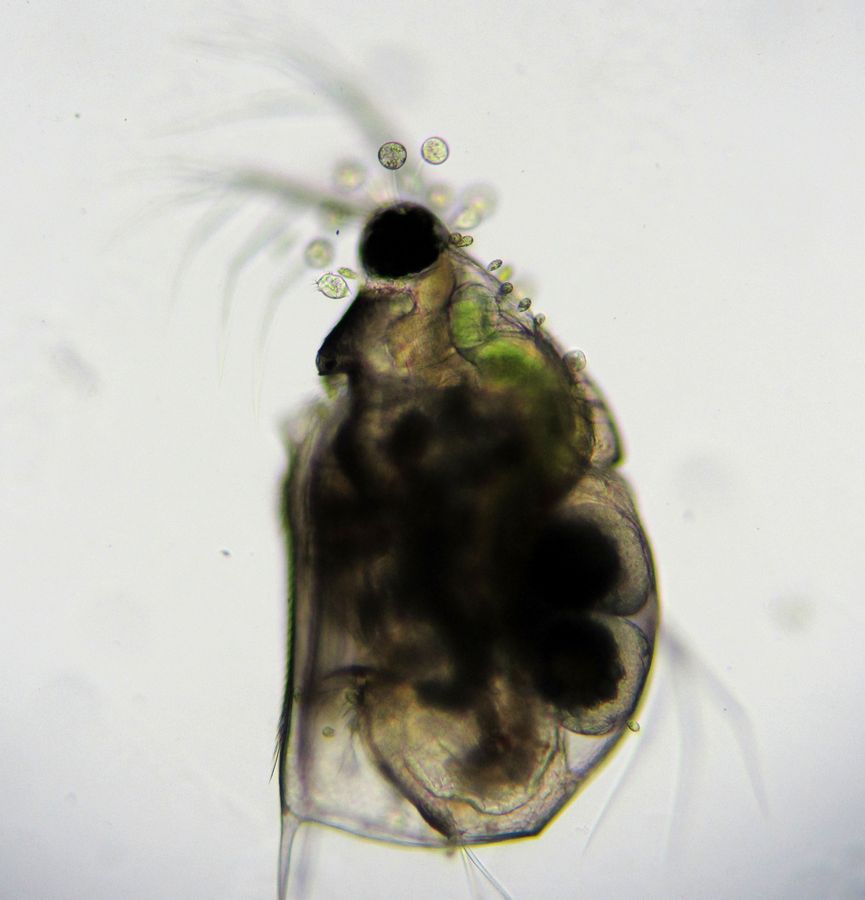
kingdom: Animalia
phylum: Arthropoda
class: Branchiopoda
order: Diplostraca
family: Daphniidae
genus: Scapholeberis
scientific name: Scapholeberis mucronata
